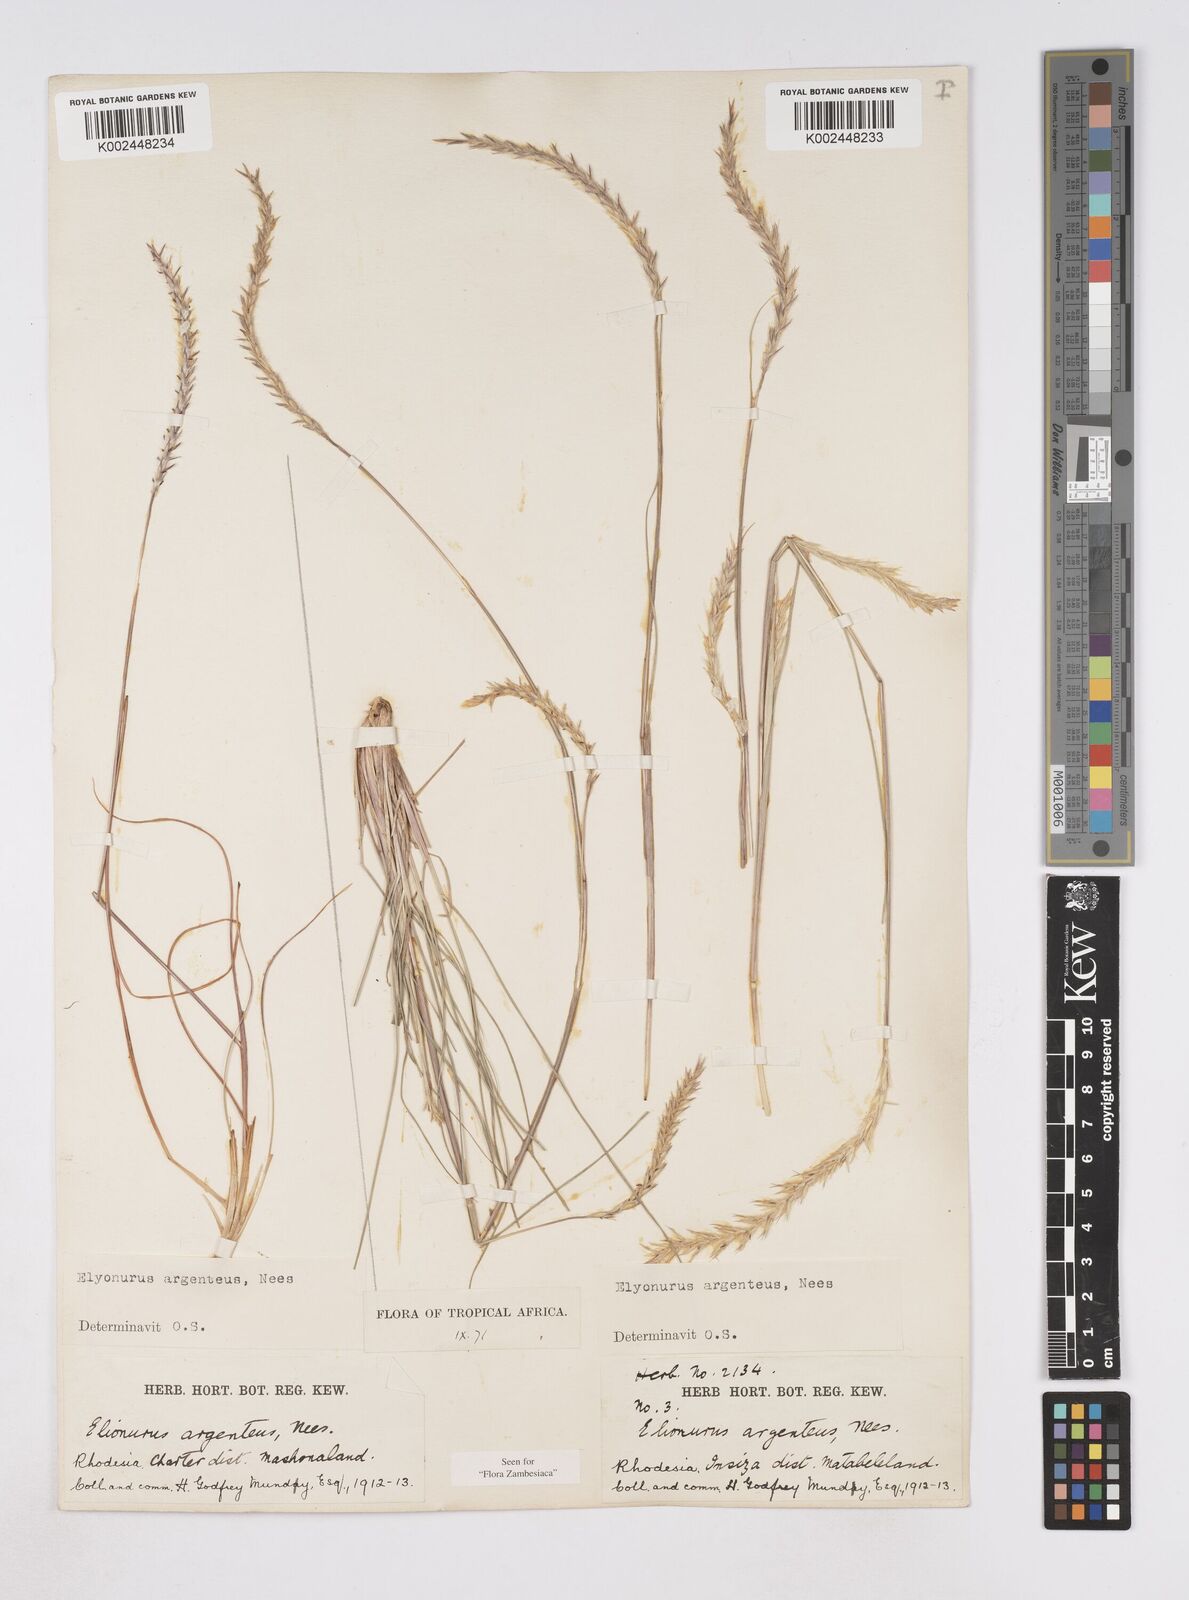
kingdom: Plantae
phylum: Tracheophyta
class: Liliopsida
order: Poales
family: Poaceae
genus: Elionurus
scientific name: Elionurus muticus
